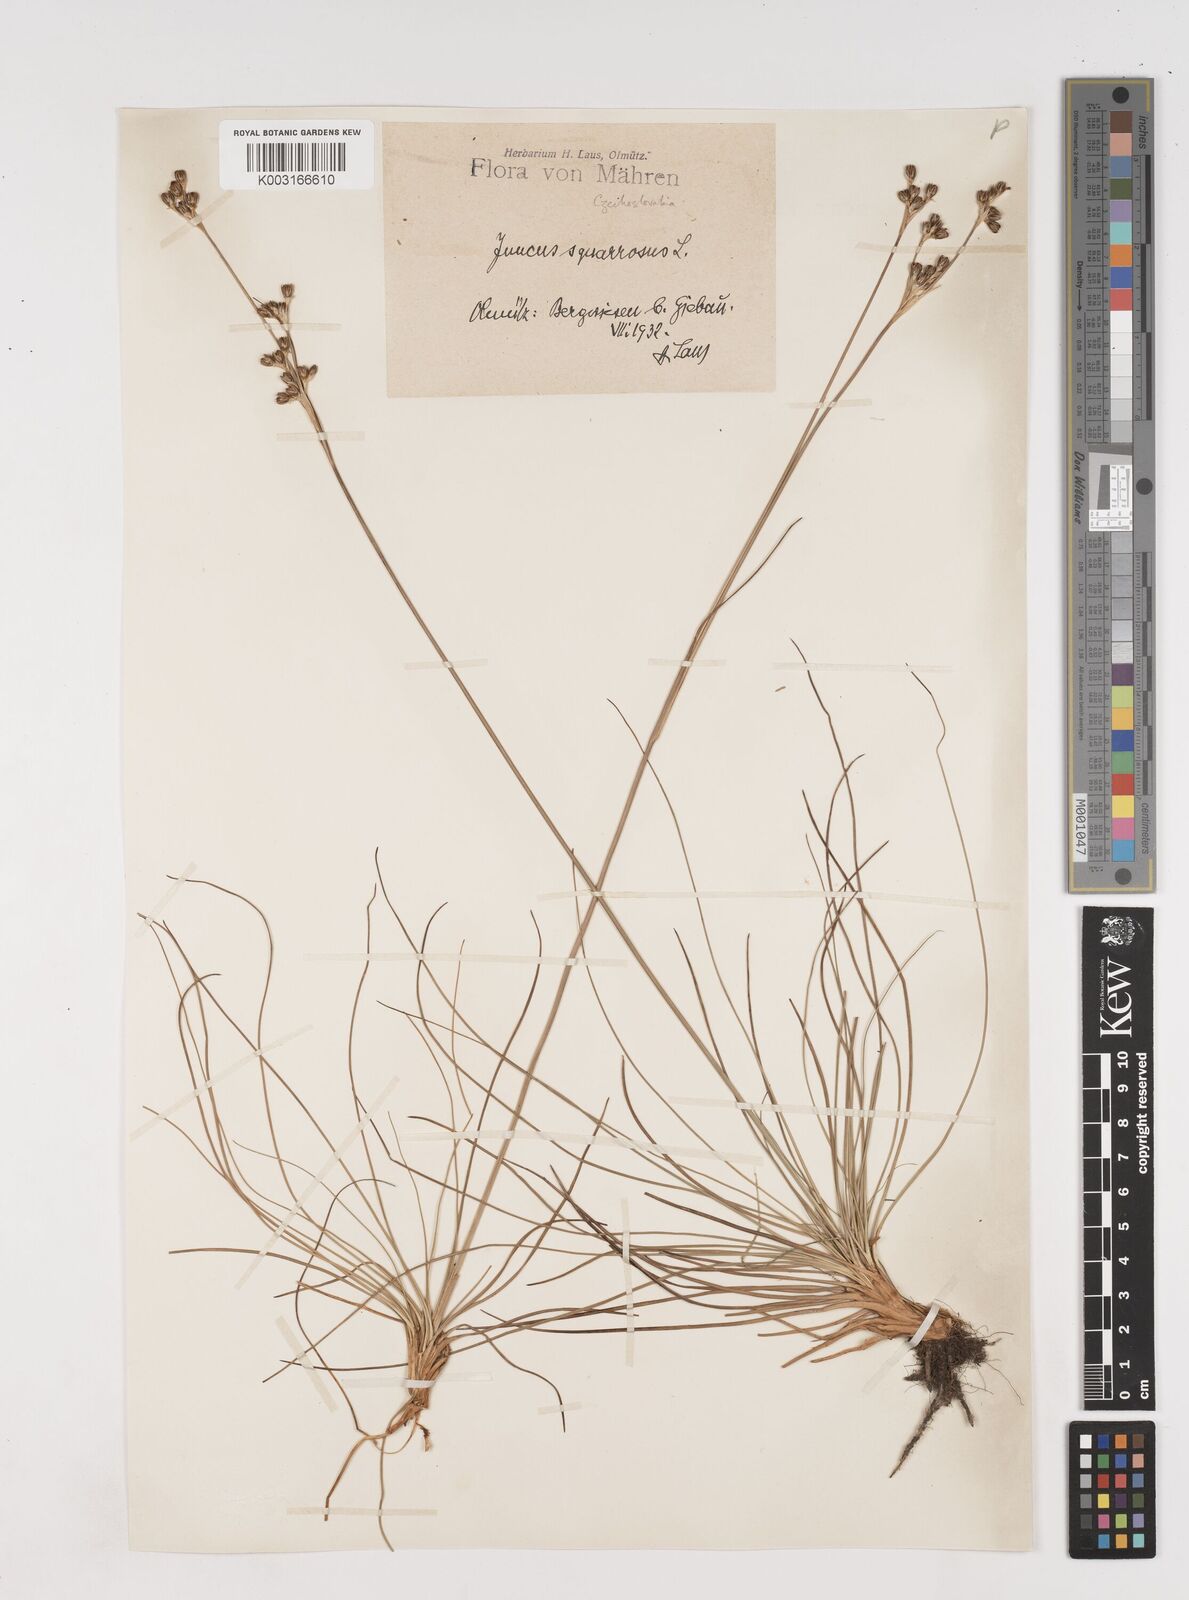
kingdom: Plantae
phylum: Tracheophyta
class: Liliopsida
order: Poales
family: Juncaceae
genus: Juncus
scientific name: Juncus squarrosus
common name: Heath rush
